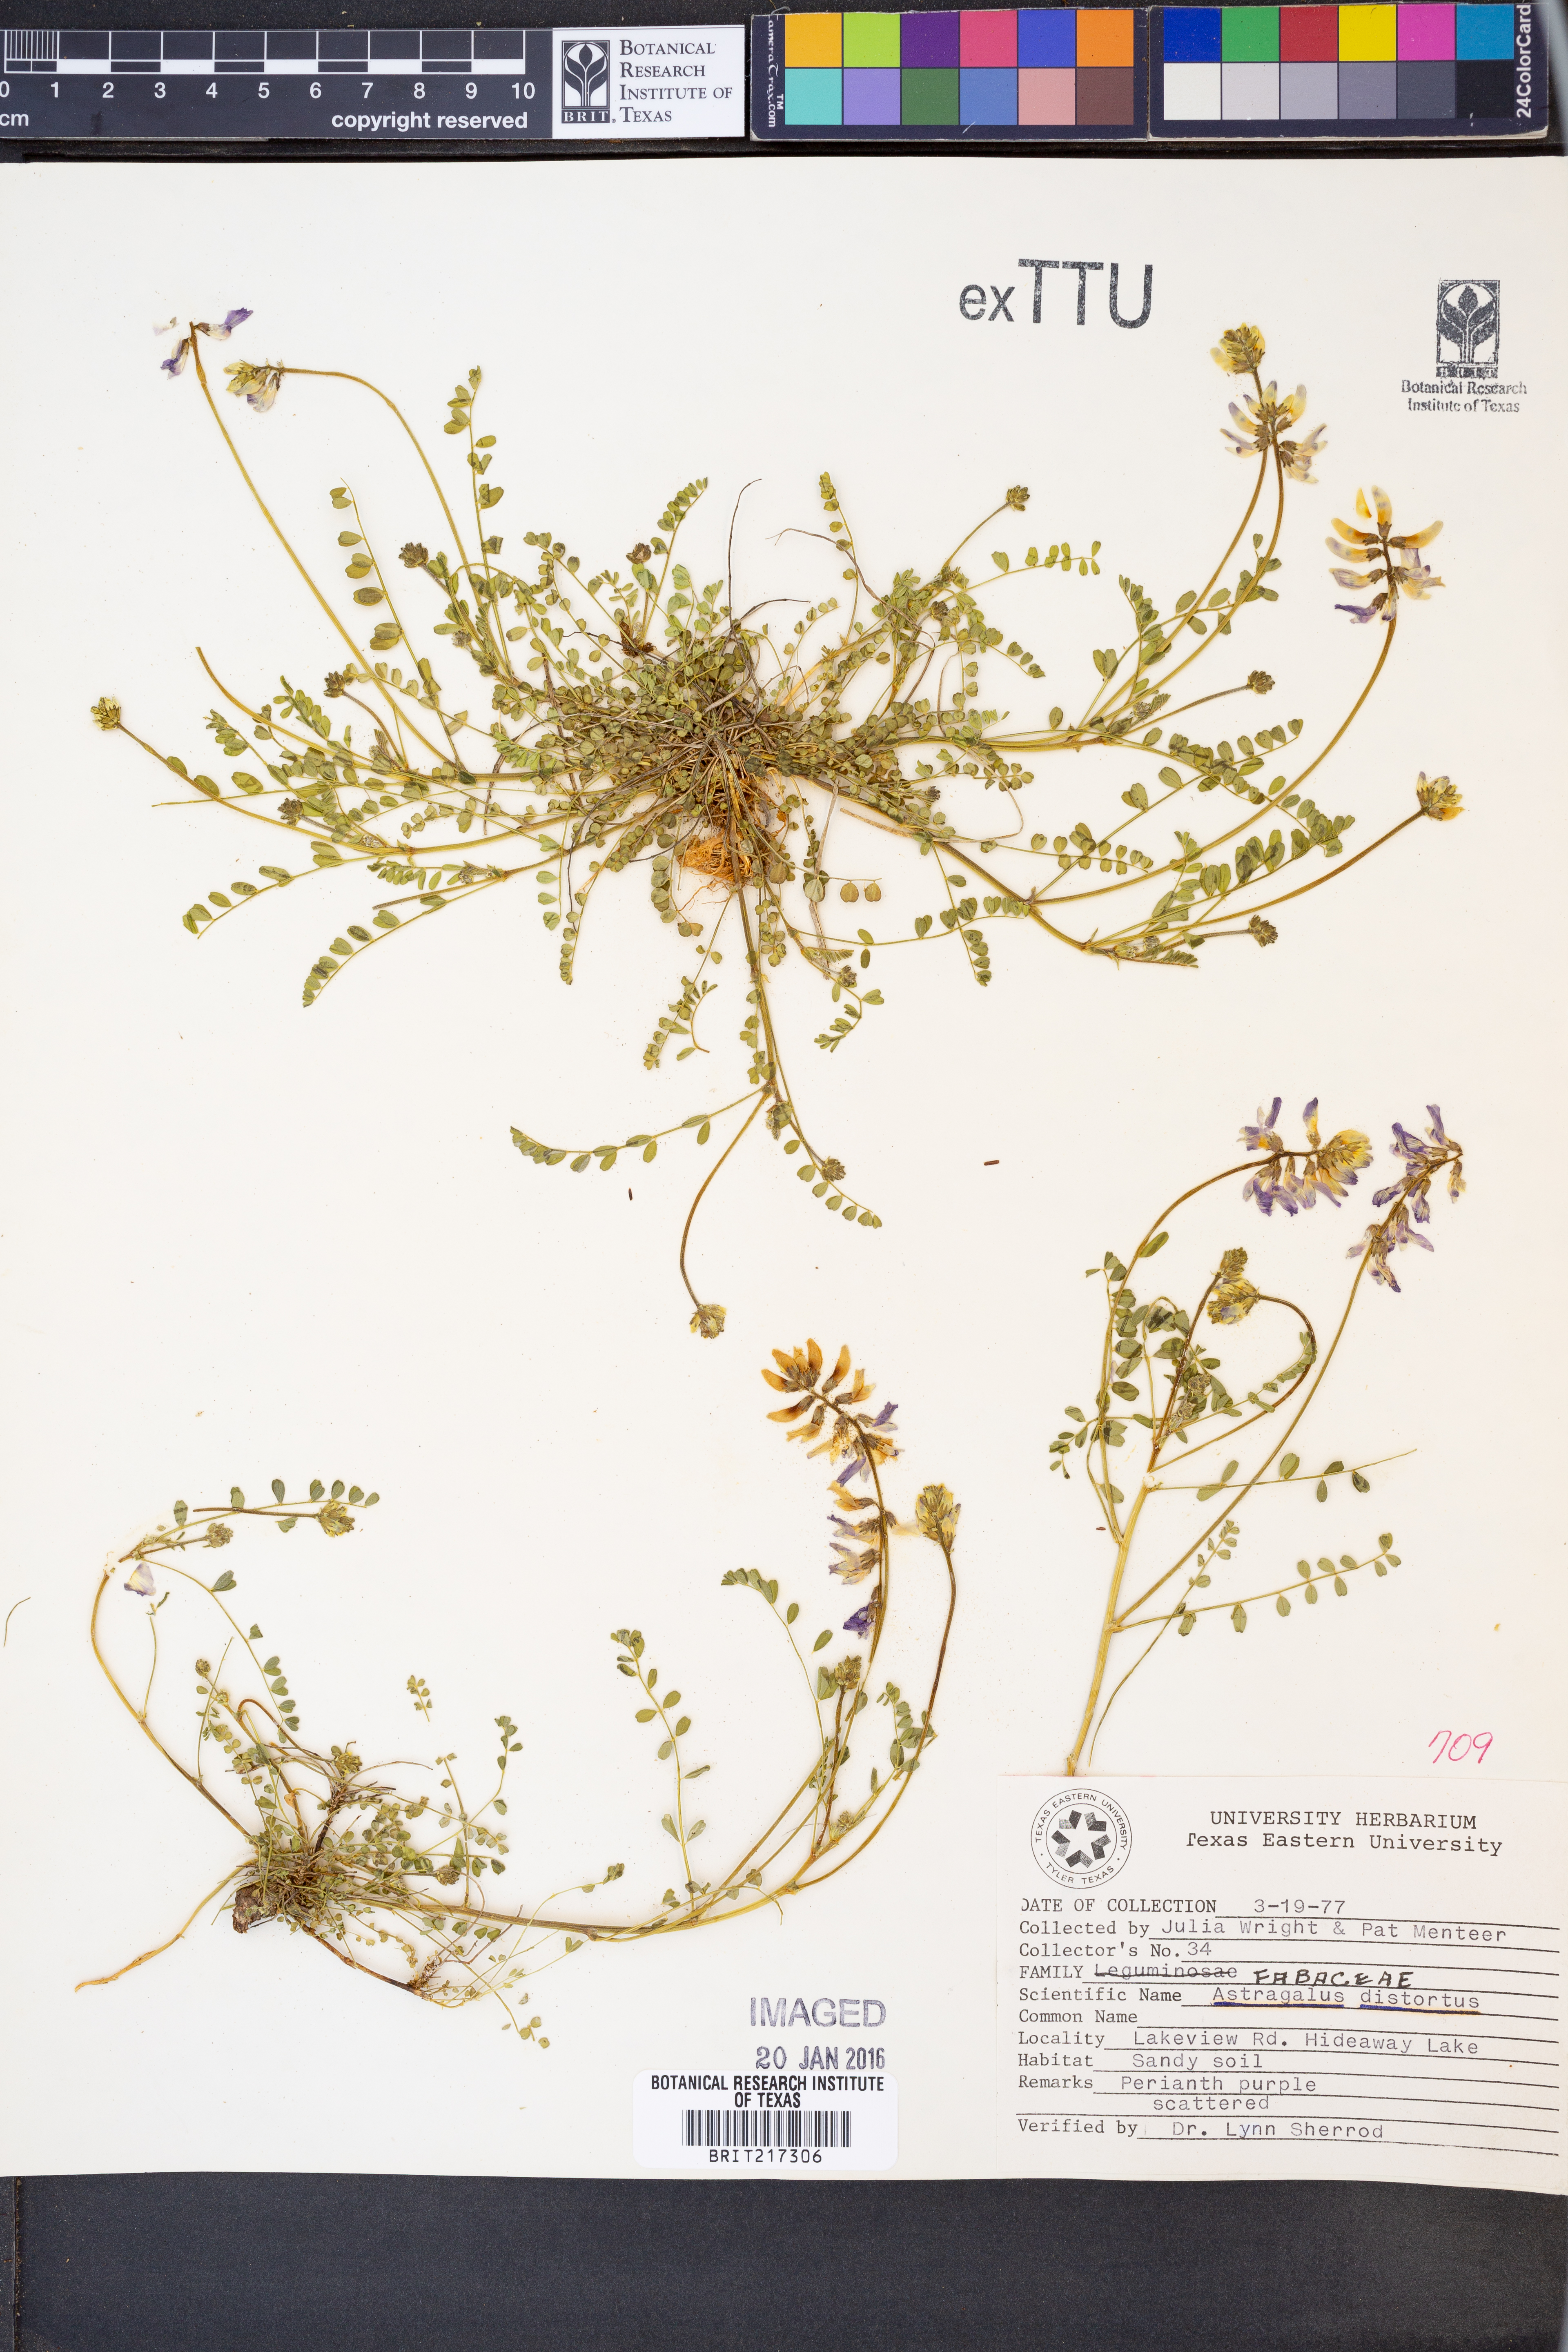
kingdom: Plantae
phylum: Tracheophyta
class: Magnoliopsida
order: Fabales
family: Fabaceae
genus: Astragalus
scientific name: Astragalus distortus
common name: Ozark milk-vetch
